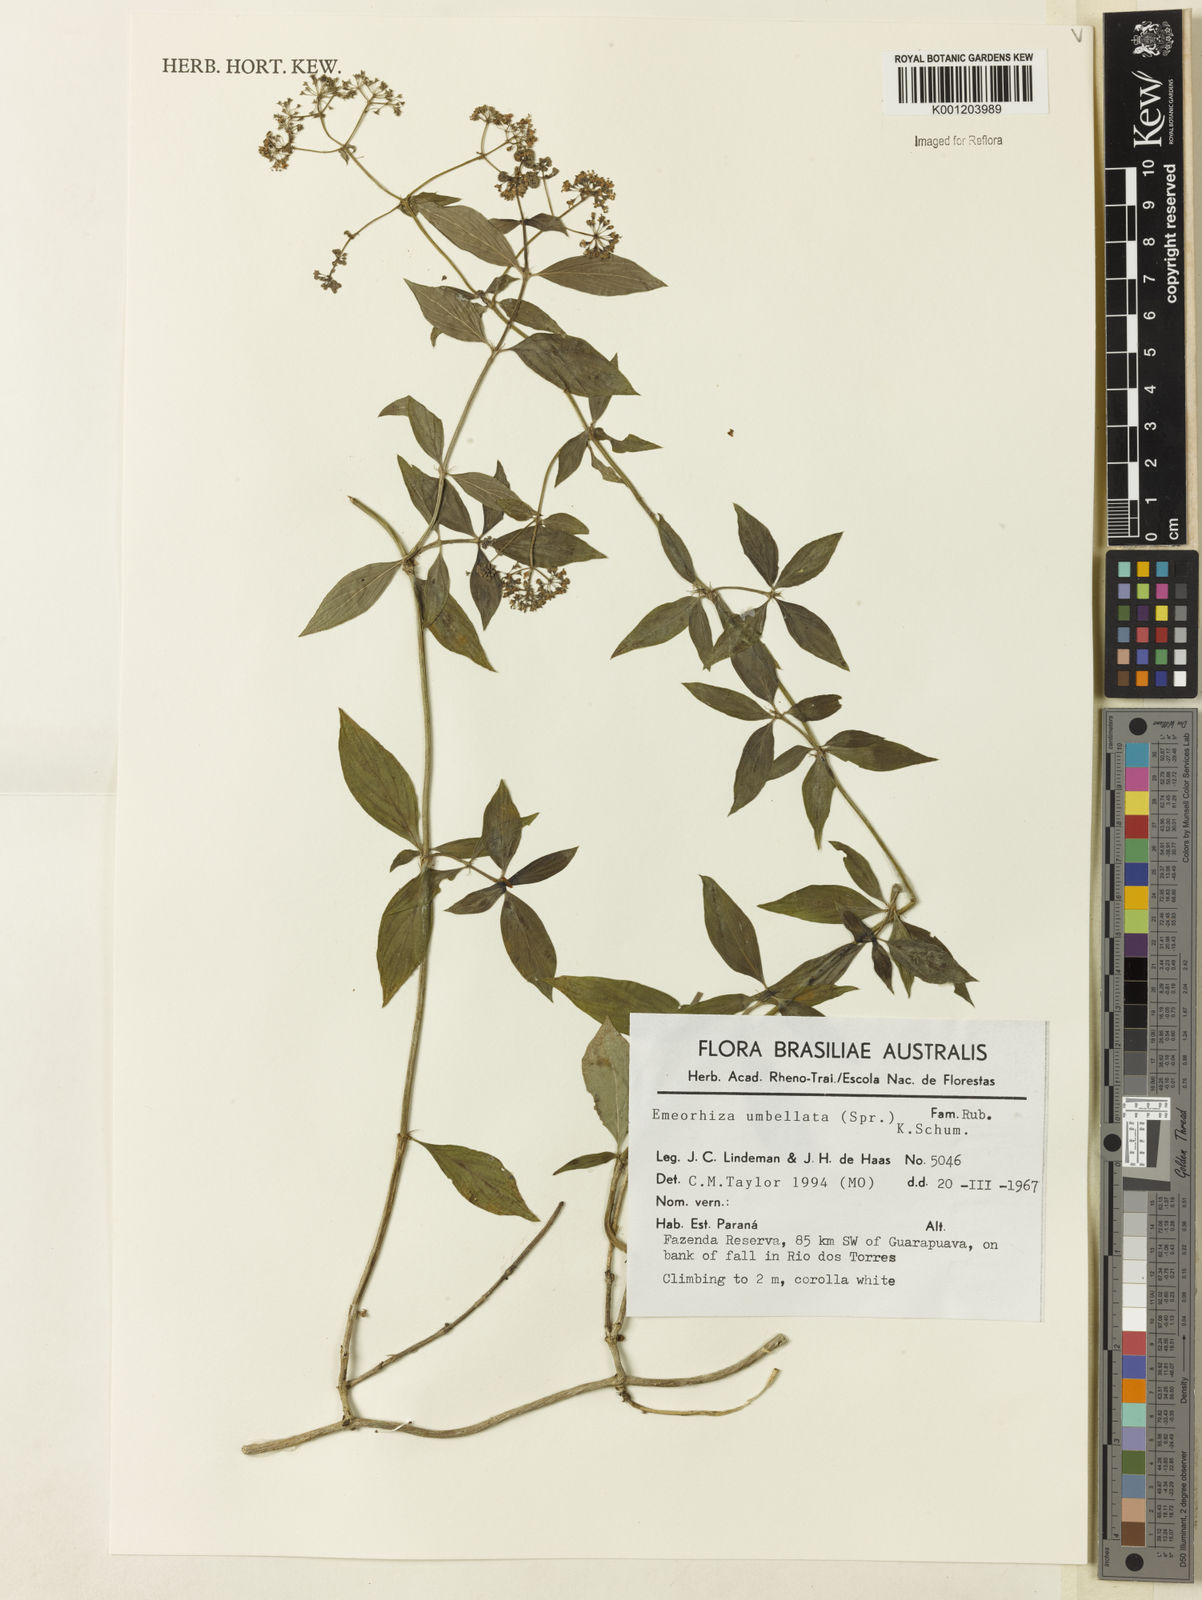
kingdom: Plantae
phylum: Tracheophyta
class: Magnoliopsida
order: Gentianales
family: Rubiaceae
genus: Emmeorhiza
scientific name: Emmeorhiza umbellata
